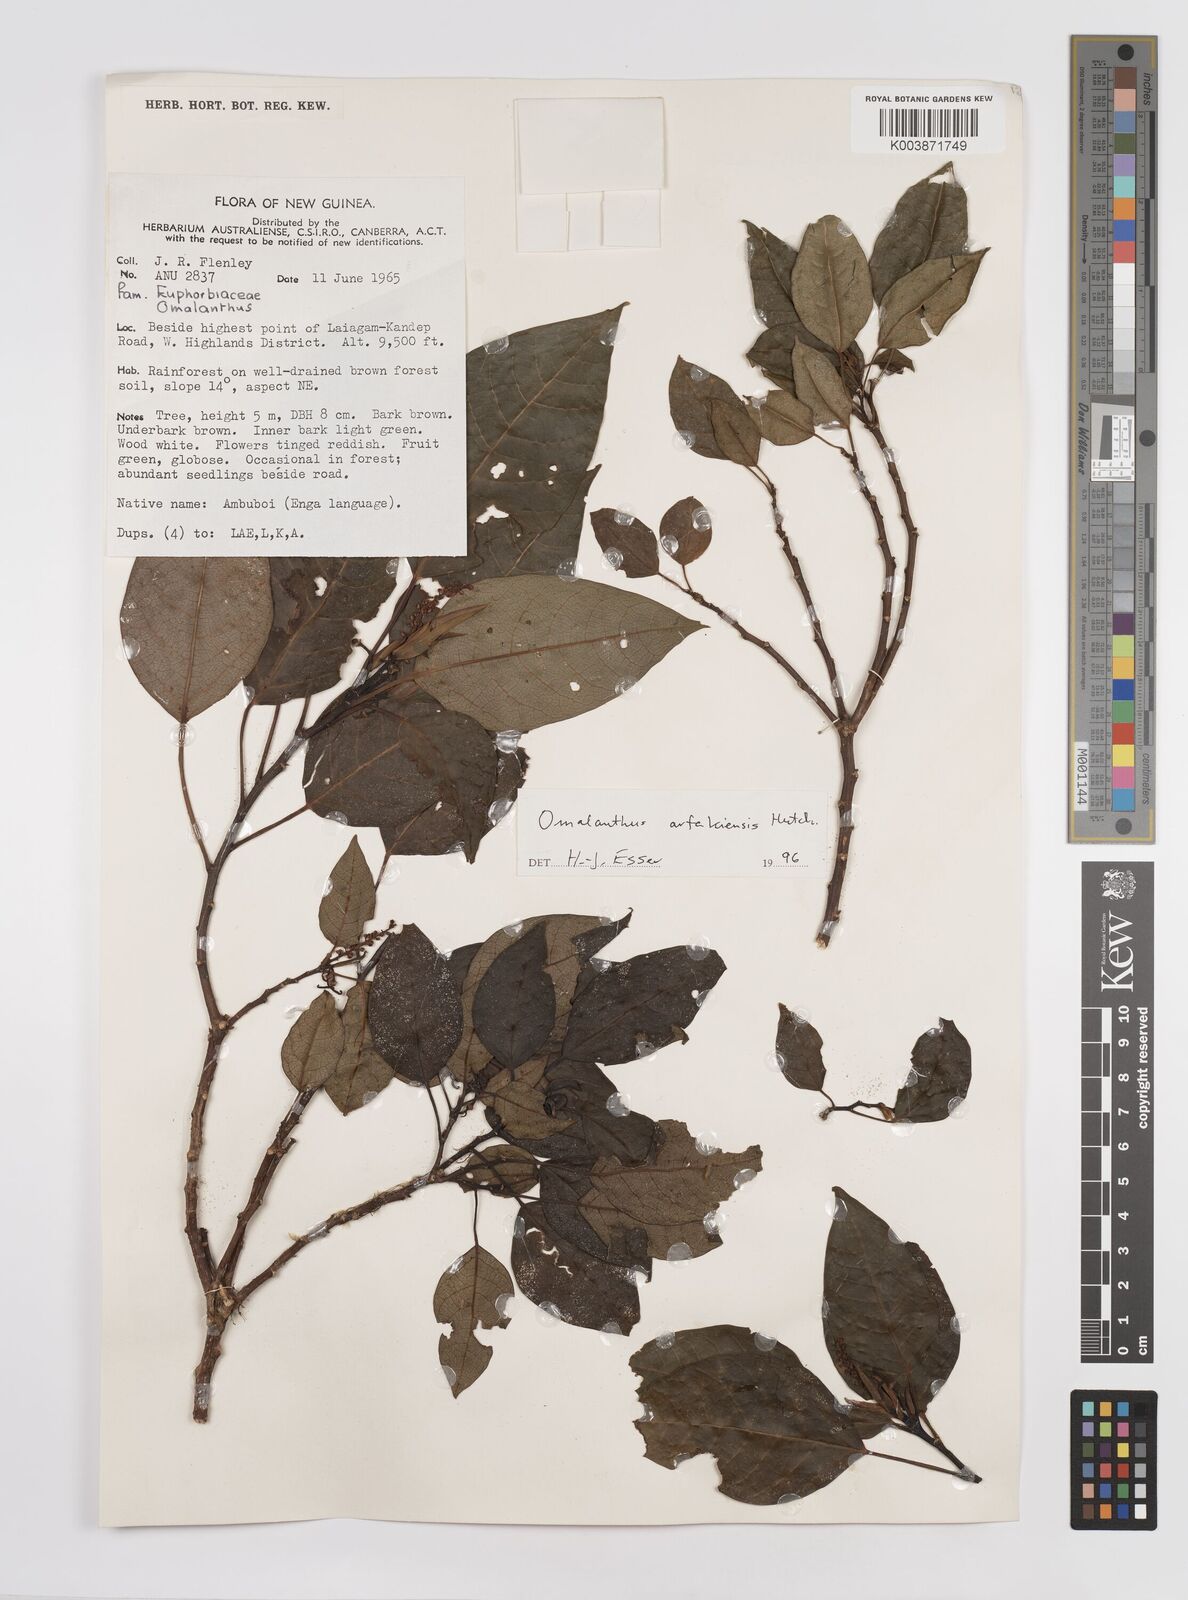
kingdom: Plantae
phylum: Tracheophyta
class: Magnoliopsida
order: Malpighiales
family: Euphorbiaceae
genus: Homalanthus
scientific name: Homalanthus arfakiensis
